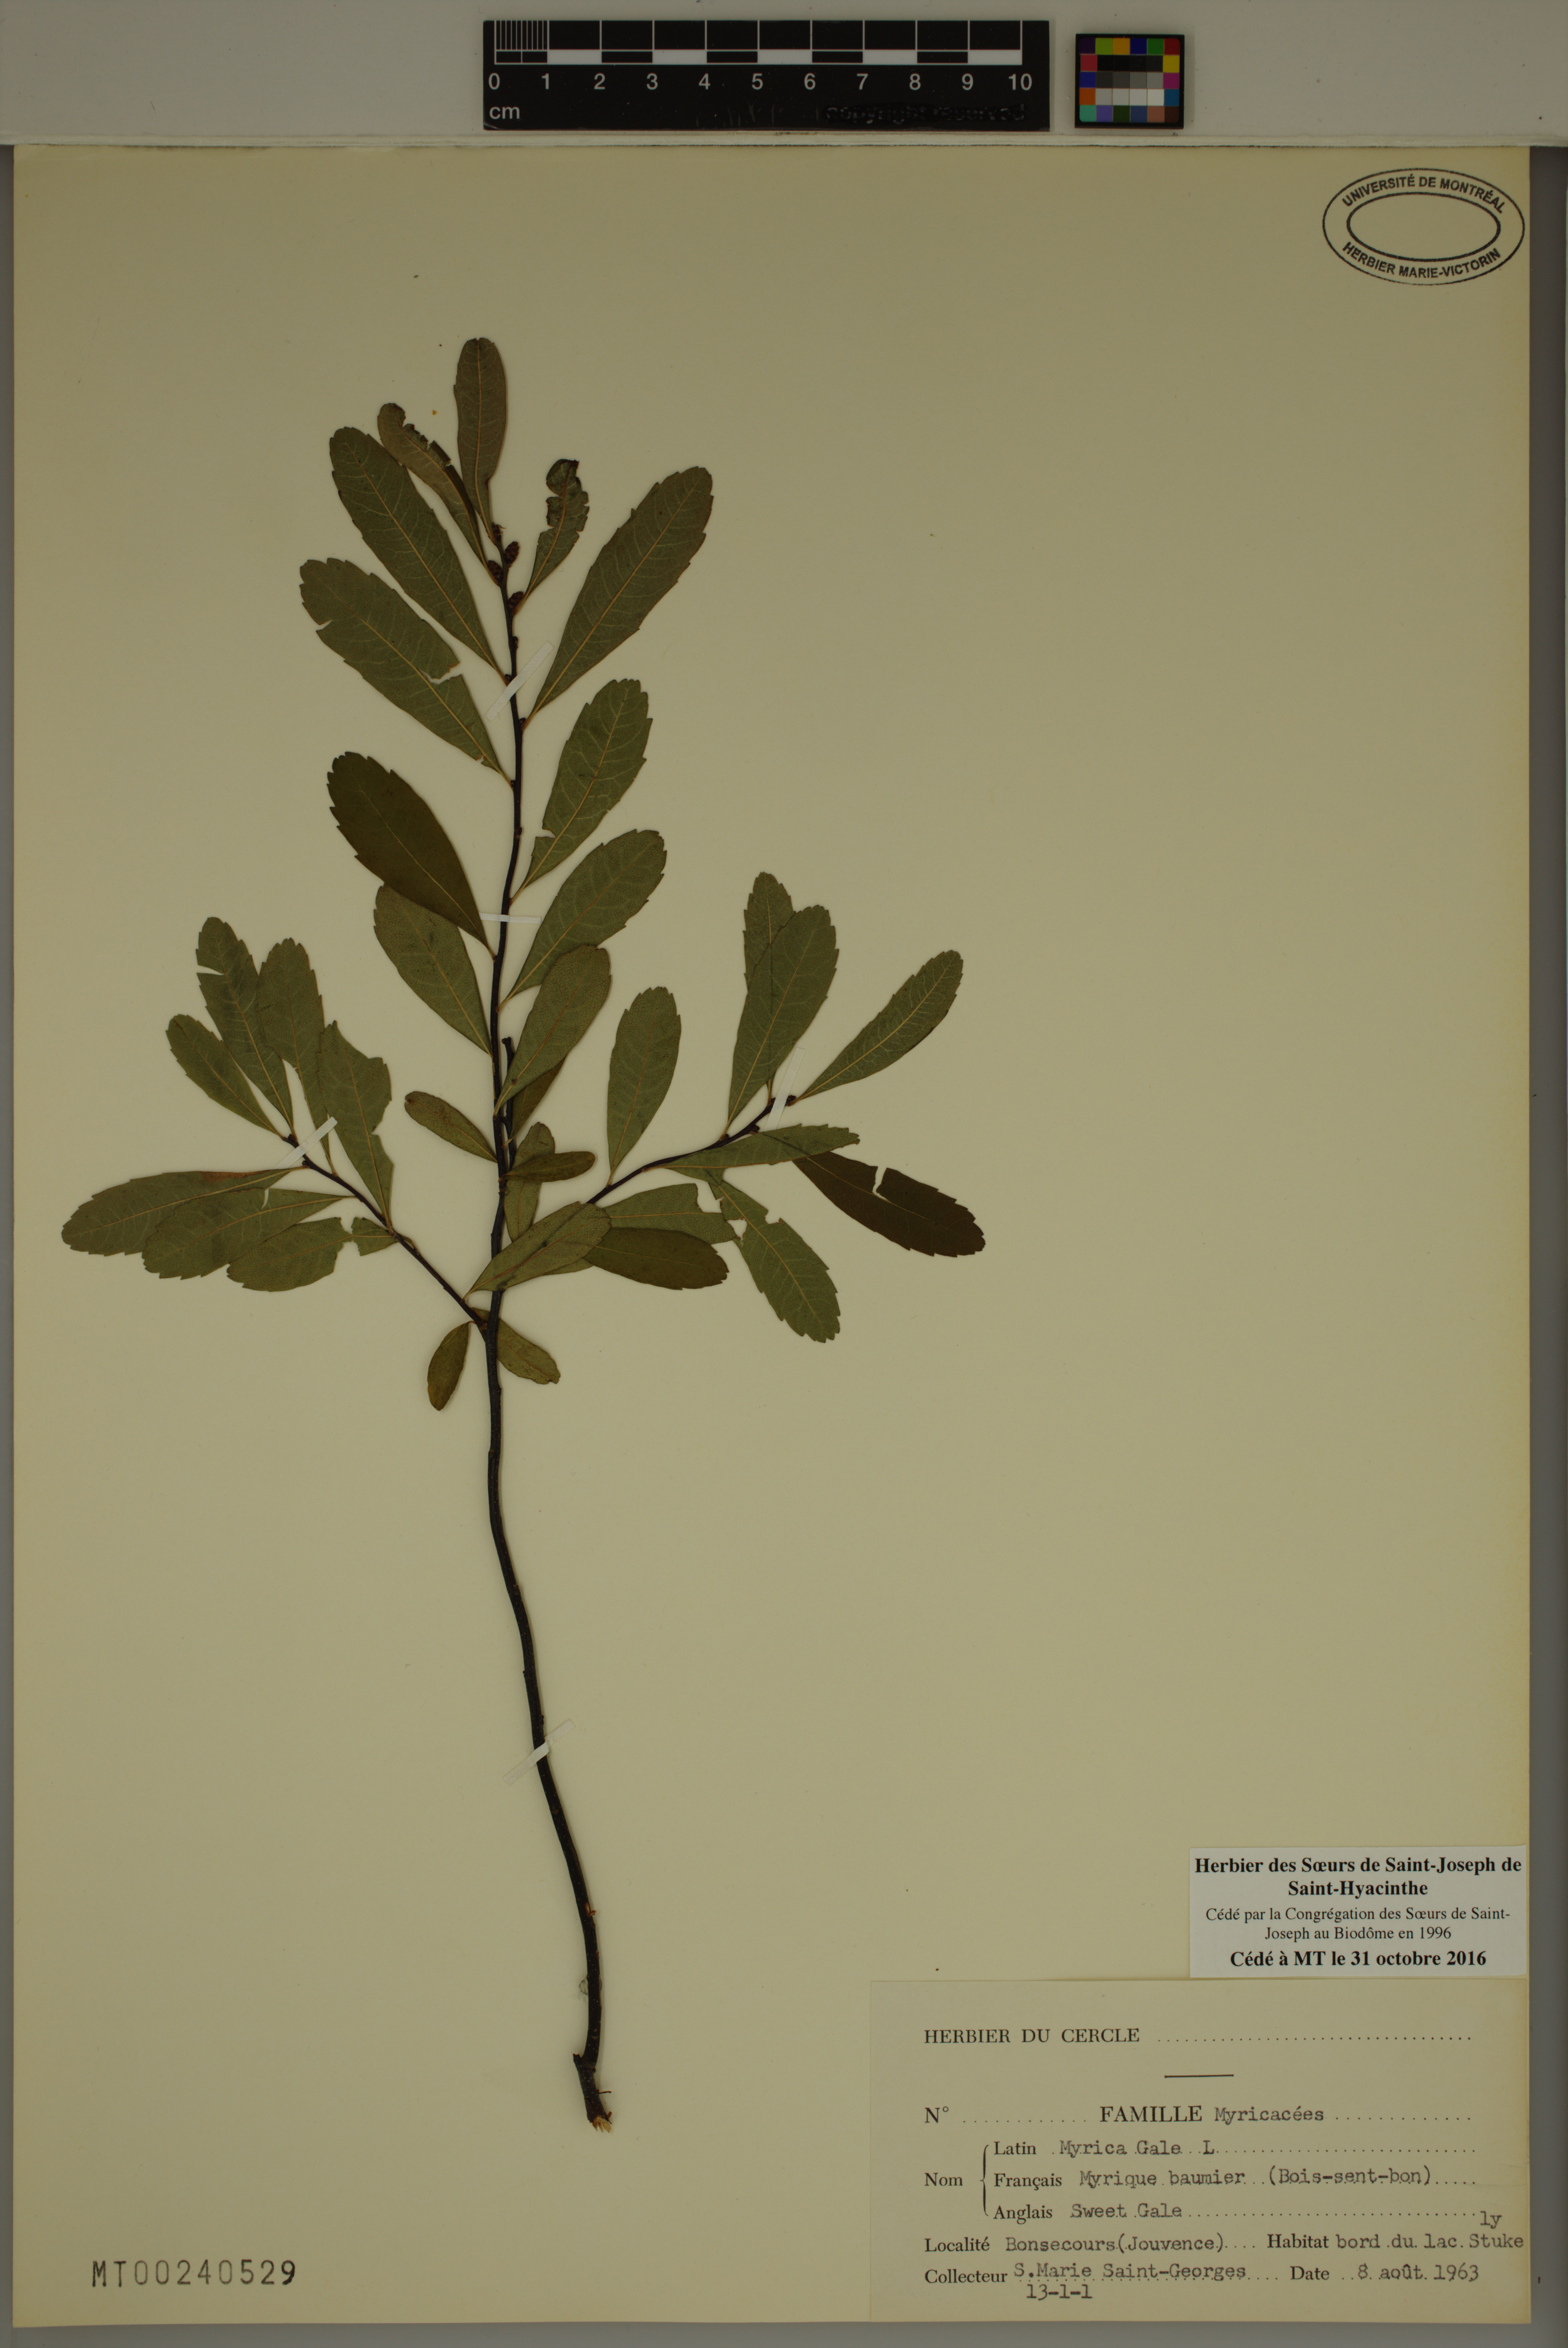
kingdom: Plantae
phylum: Tracheophyta
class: Magnoliopsida
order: Fagales
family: Myricaceae
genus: Myrica
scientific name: Myrica gale
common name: Sweet gale
